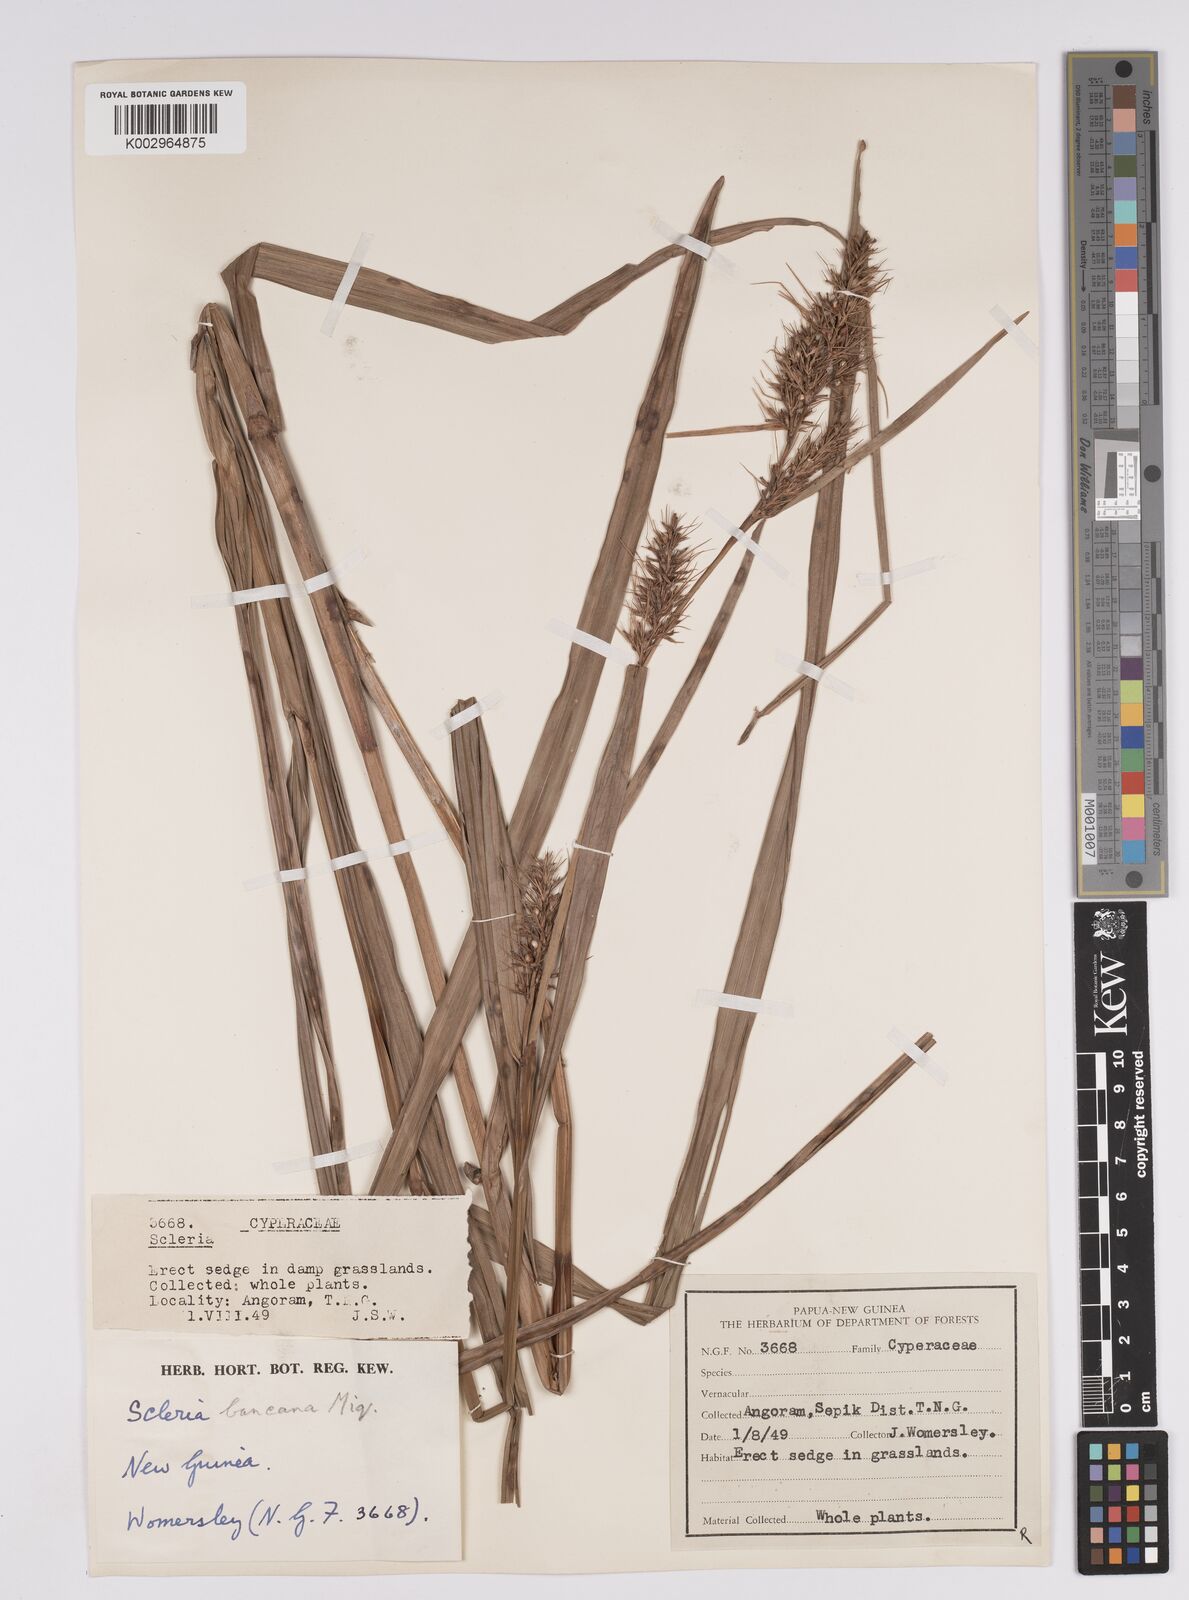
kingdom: Plantae
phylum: Tracheophyta
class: Liliopsida
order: Poales
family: Cyperaceae
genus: Scleria
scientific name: Scleria ciliaris
